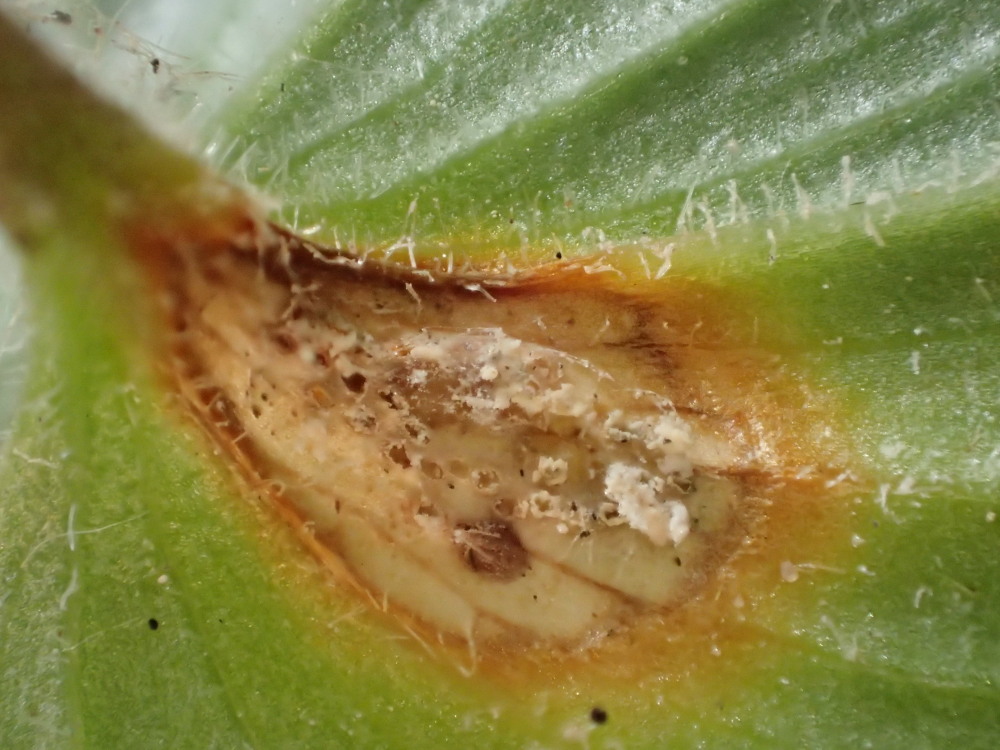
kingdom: Fungi
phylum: Basidiomycota
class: Pucciniomycetes
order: Pucciniales
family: Pucciniaceae
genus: Puccinia
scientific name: Puccinia sessilis
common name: Arum rust
